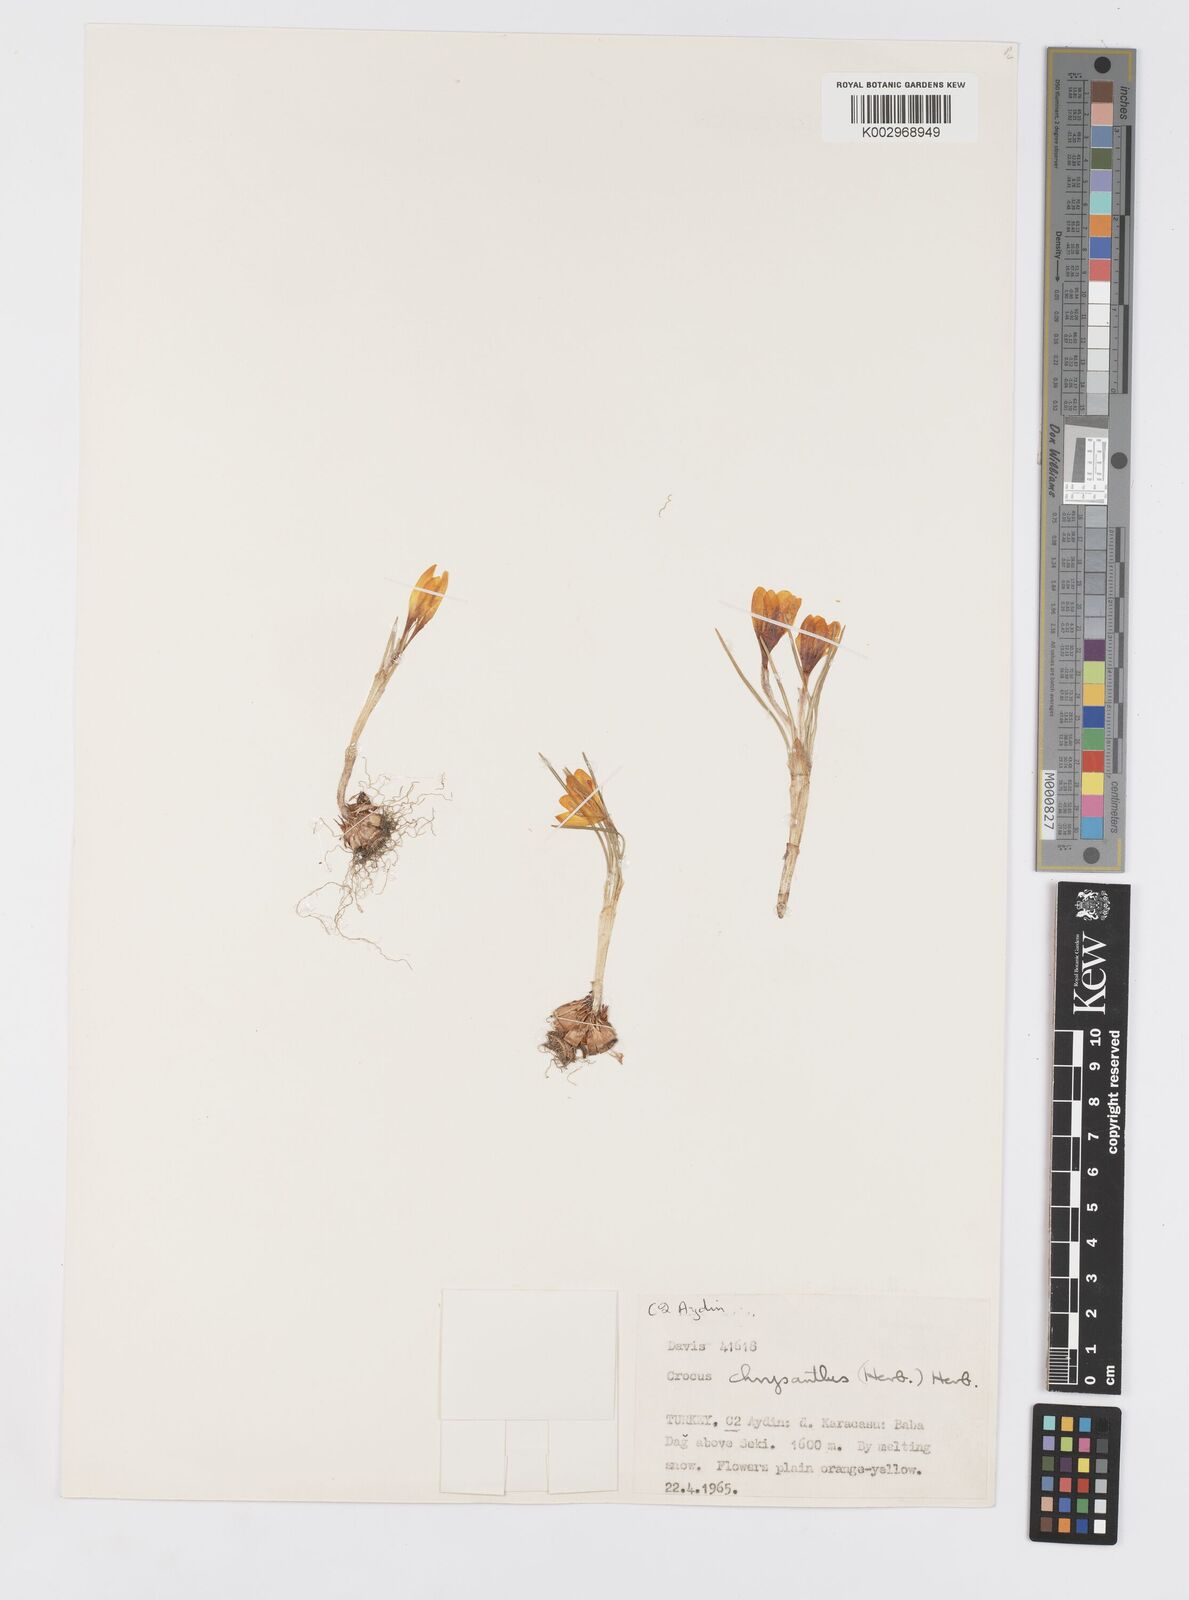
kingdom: Plantae
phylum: Tracheophyta
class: Liliopsida
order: Asparagales
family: Iridaceae
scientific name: Iridaceae
